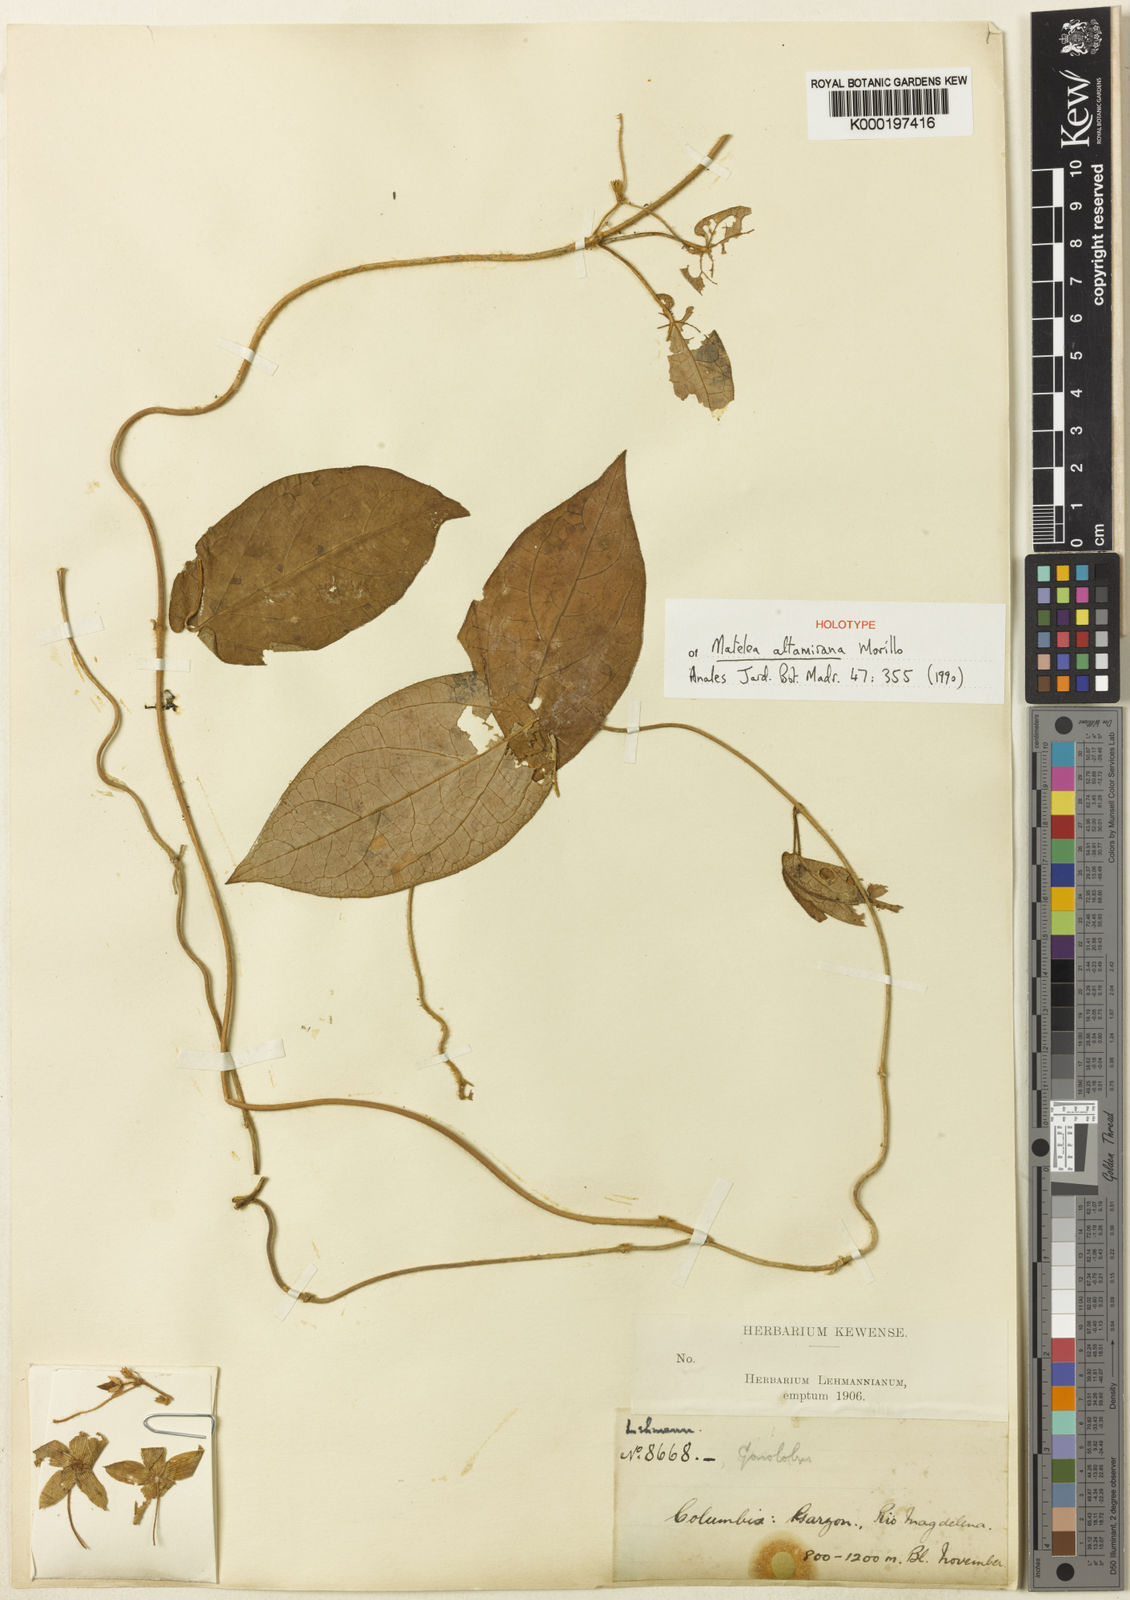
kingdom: Plantae
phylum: Tracheophyta
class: Magnoliopsida
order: Gentianales
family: Apocynaceae
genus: Matelea
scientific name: Matelea altamirana
